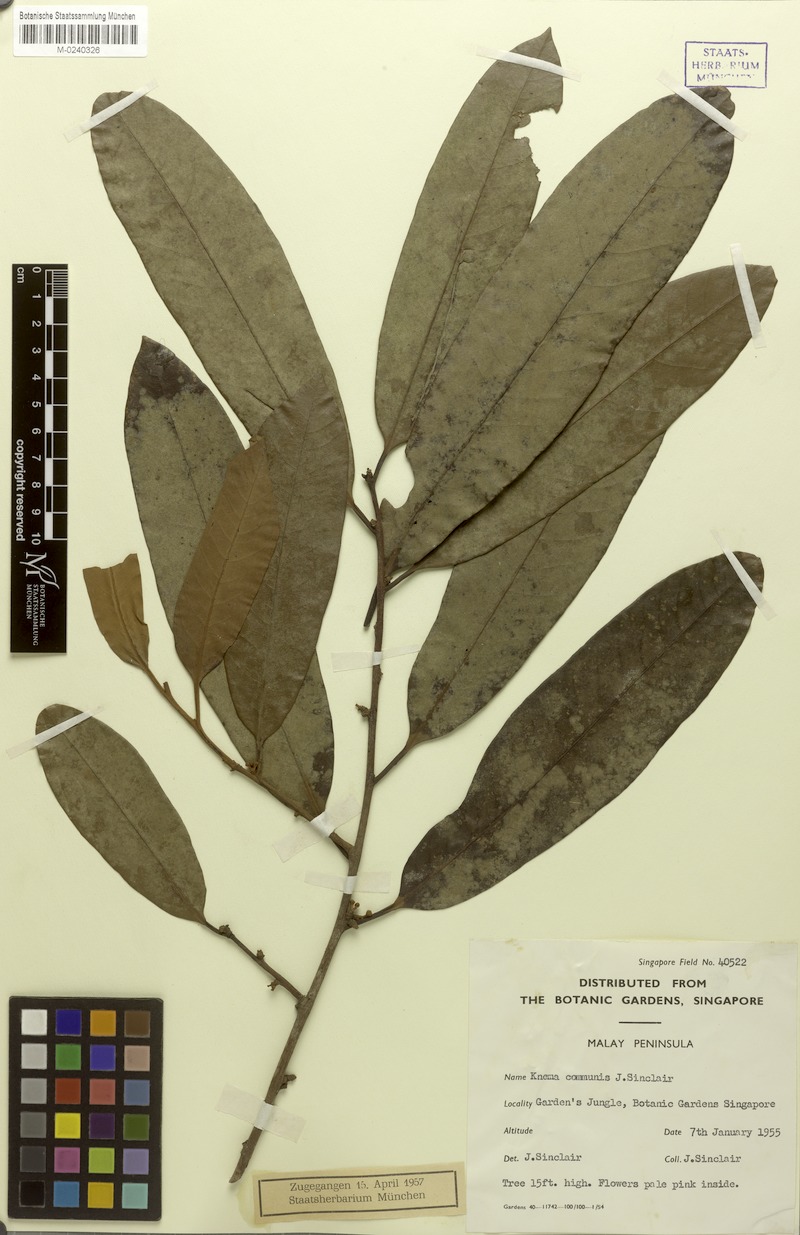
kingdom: Plantae
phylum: Tracheophyta
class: Magnoliopsida
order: Magnoliales
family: Myristicaceae
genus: Knema
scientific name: Knema communis
